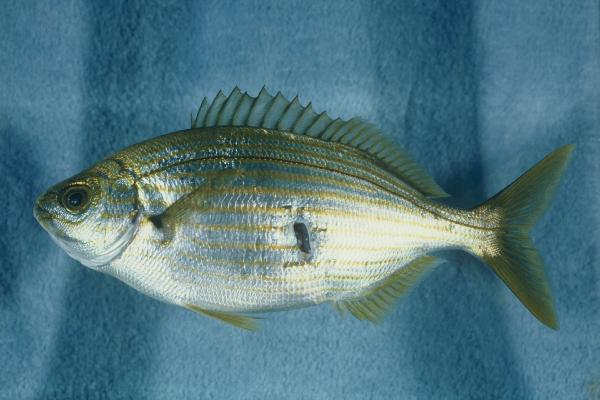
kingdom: Animalia
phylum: Chordata
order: Perciformes
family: Sparidae
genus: Sarpa
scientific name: Sarpa salpa
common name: Salema
